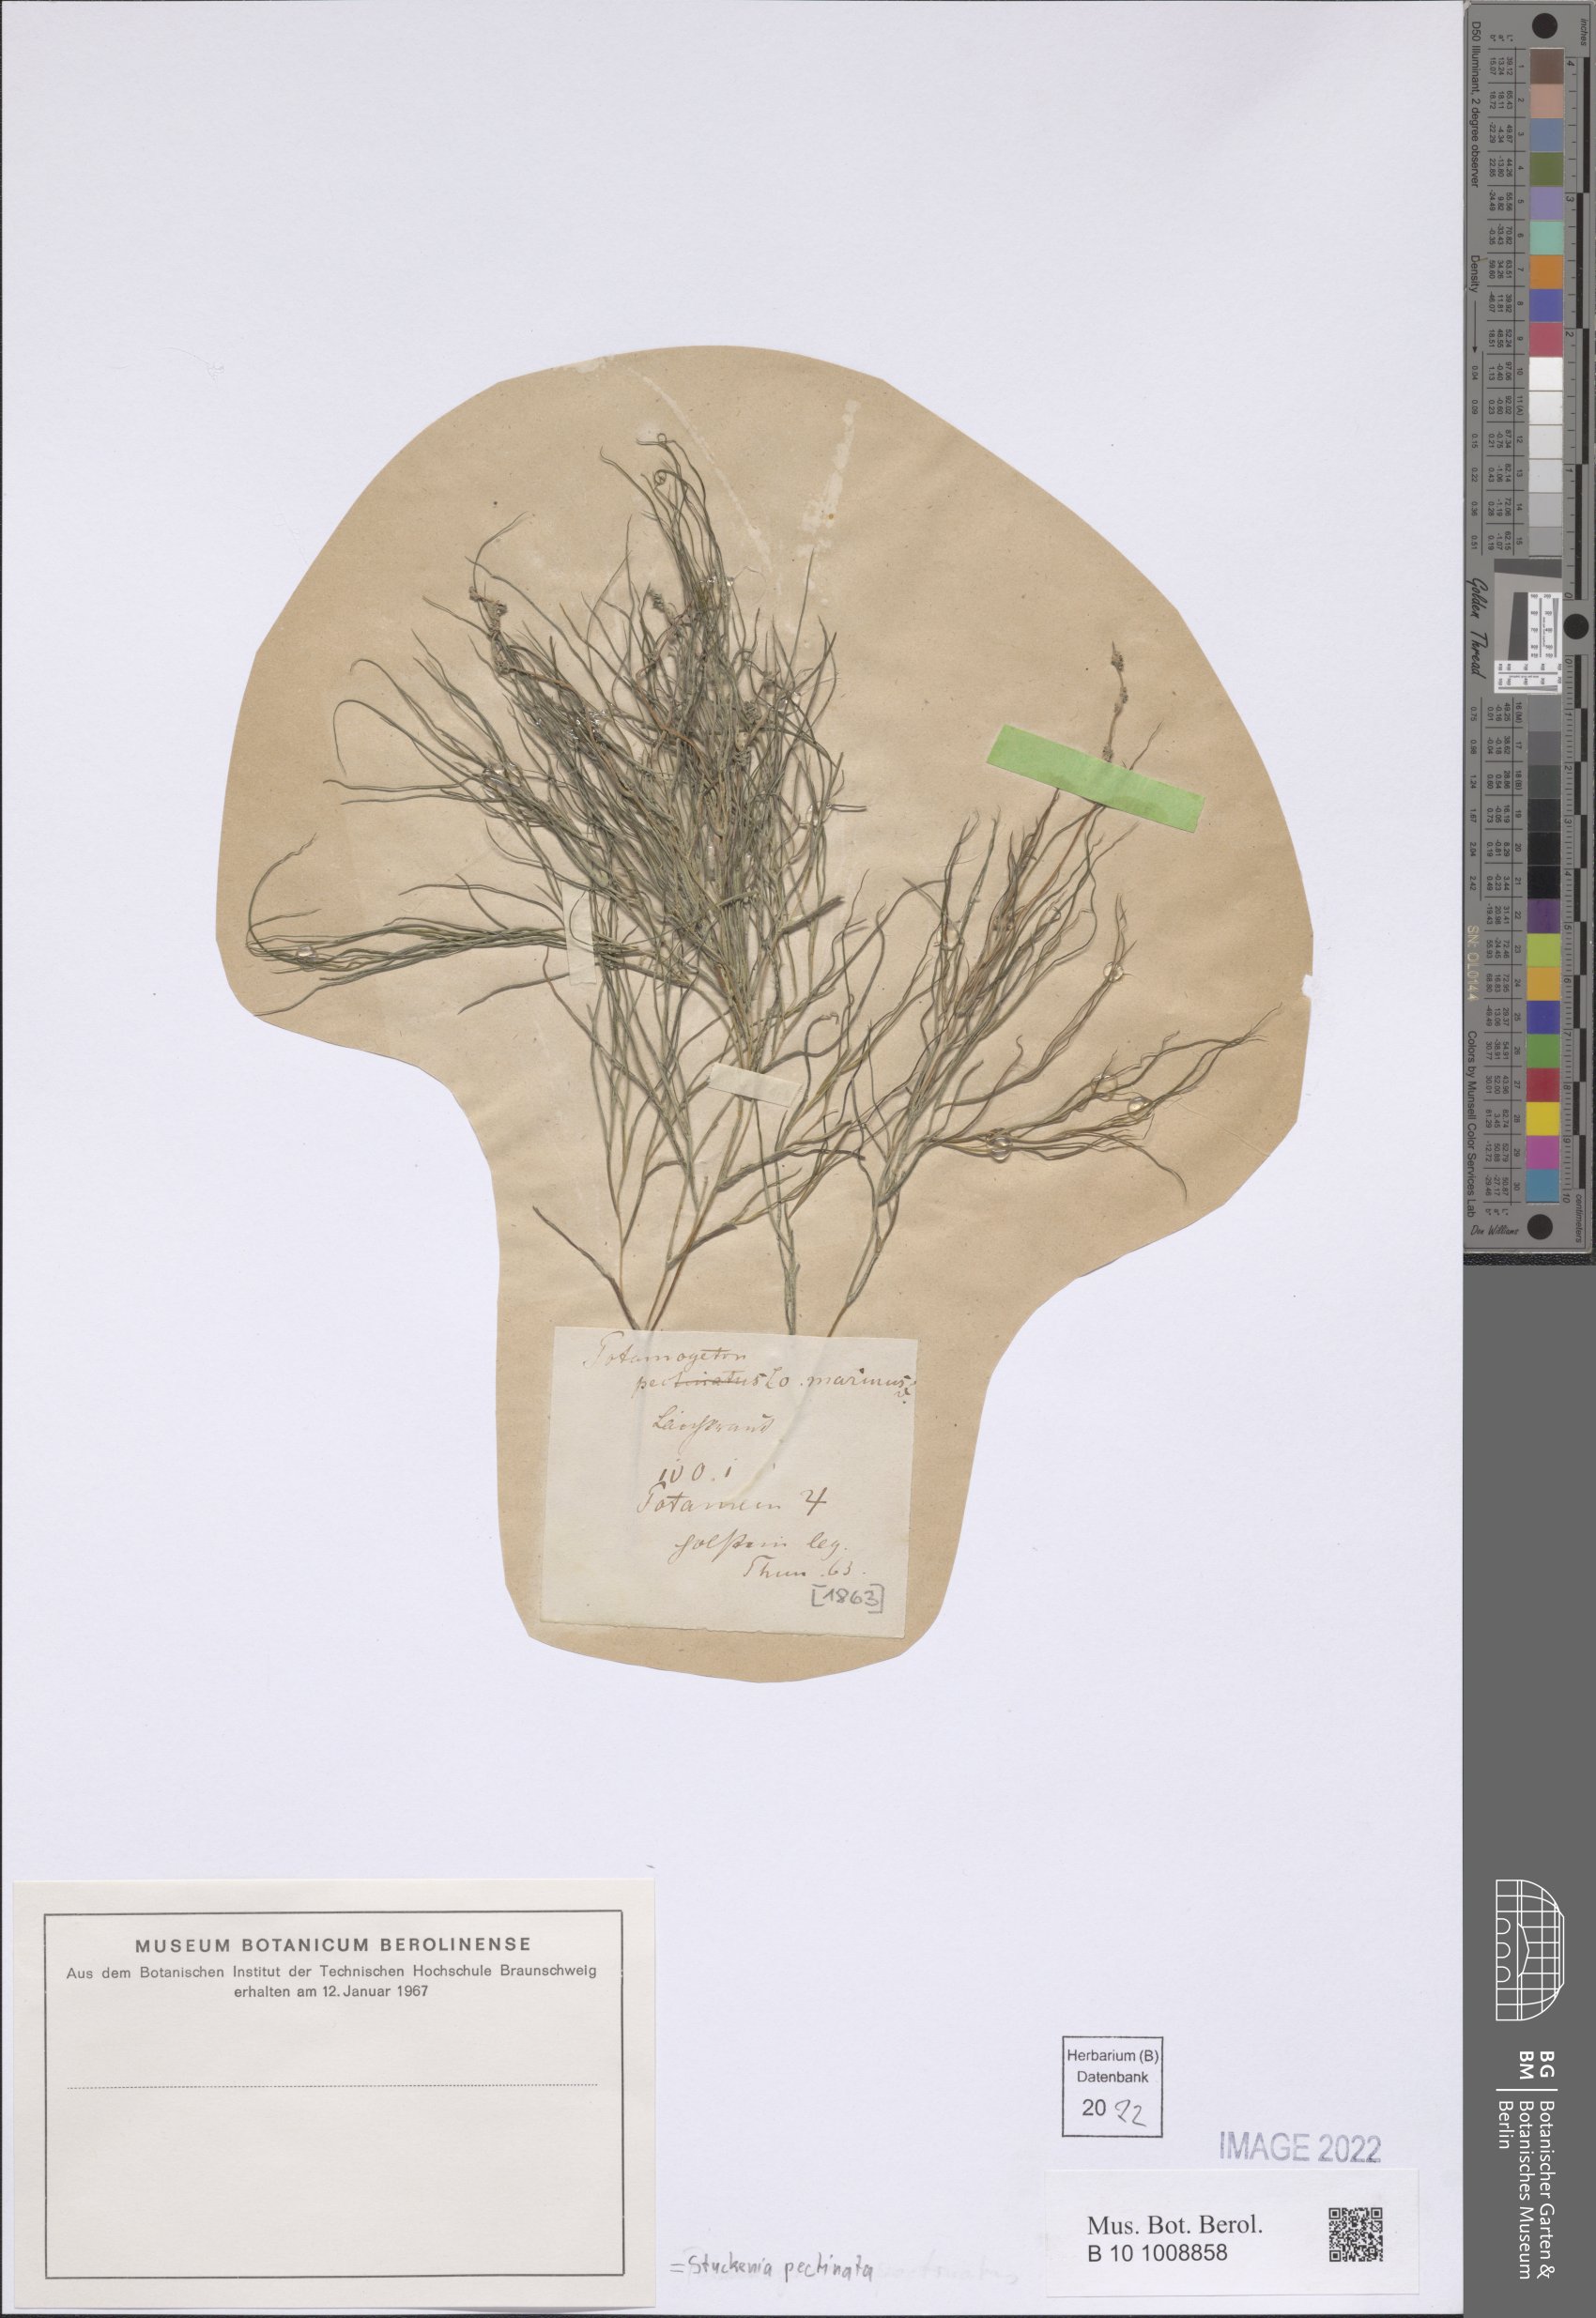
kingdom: Plantae
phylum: Tracheophyta
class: Liliopsida
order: Alismatales
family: Potamogetonaceae
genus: Stuckenia
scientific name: Stuckenia pectinata
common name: Sago pondweed
